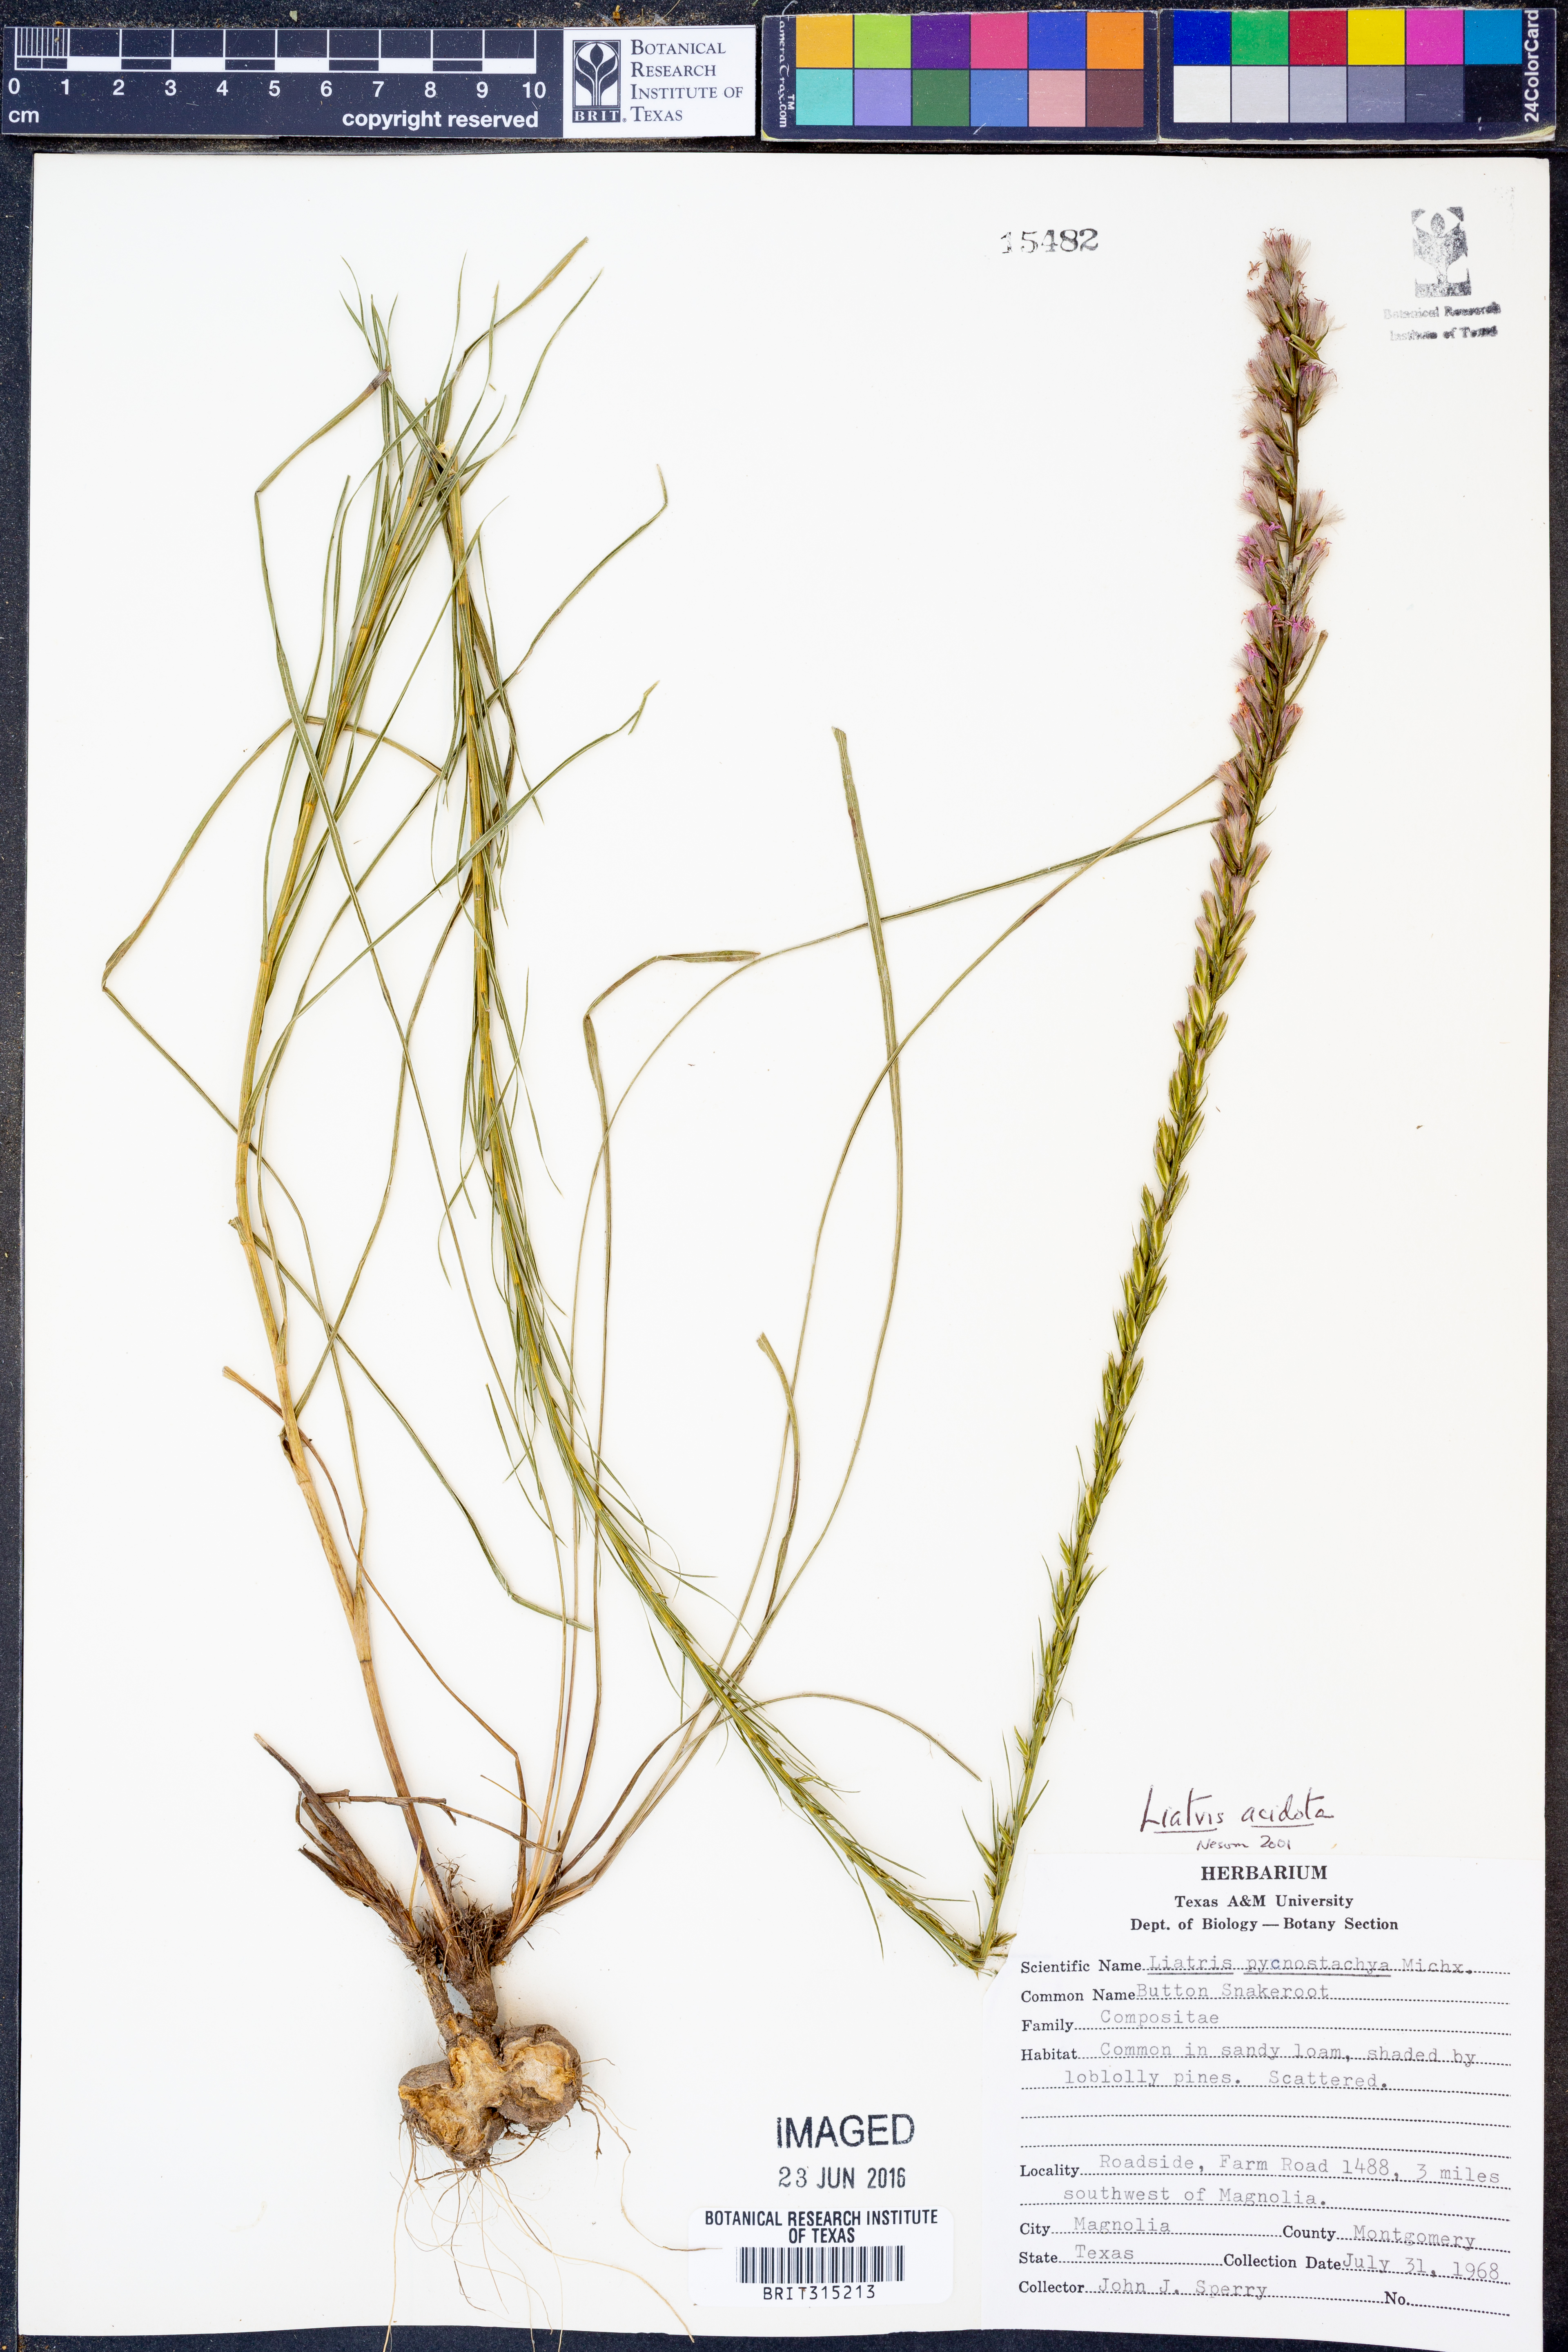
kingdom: Plantae
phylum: Tracheophyta
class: Magnoliopsida
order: Asterales
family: Asteraceae
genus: Liatris
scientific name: Liatris acidota
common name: Gulf coast gayfeather
